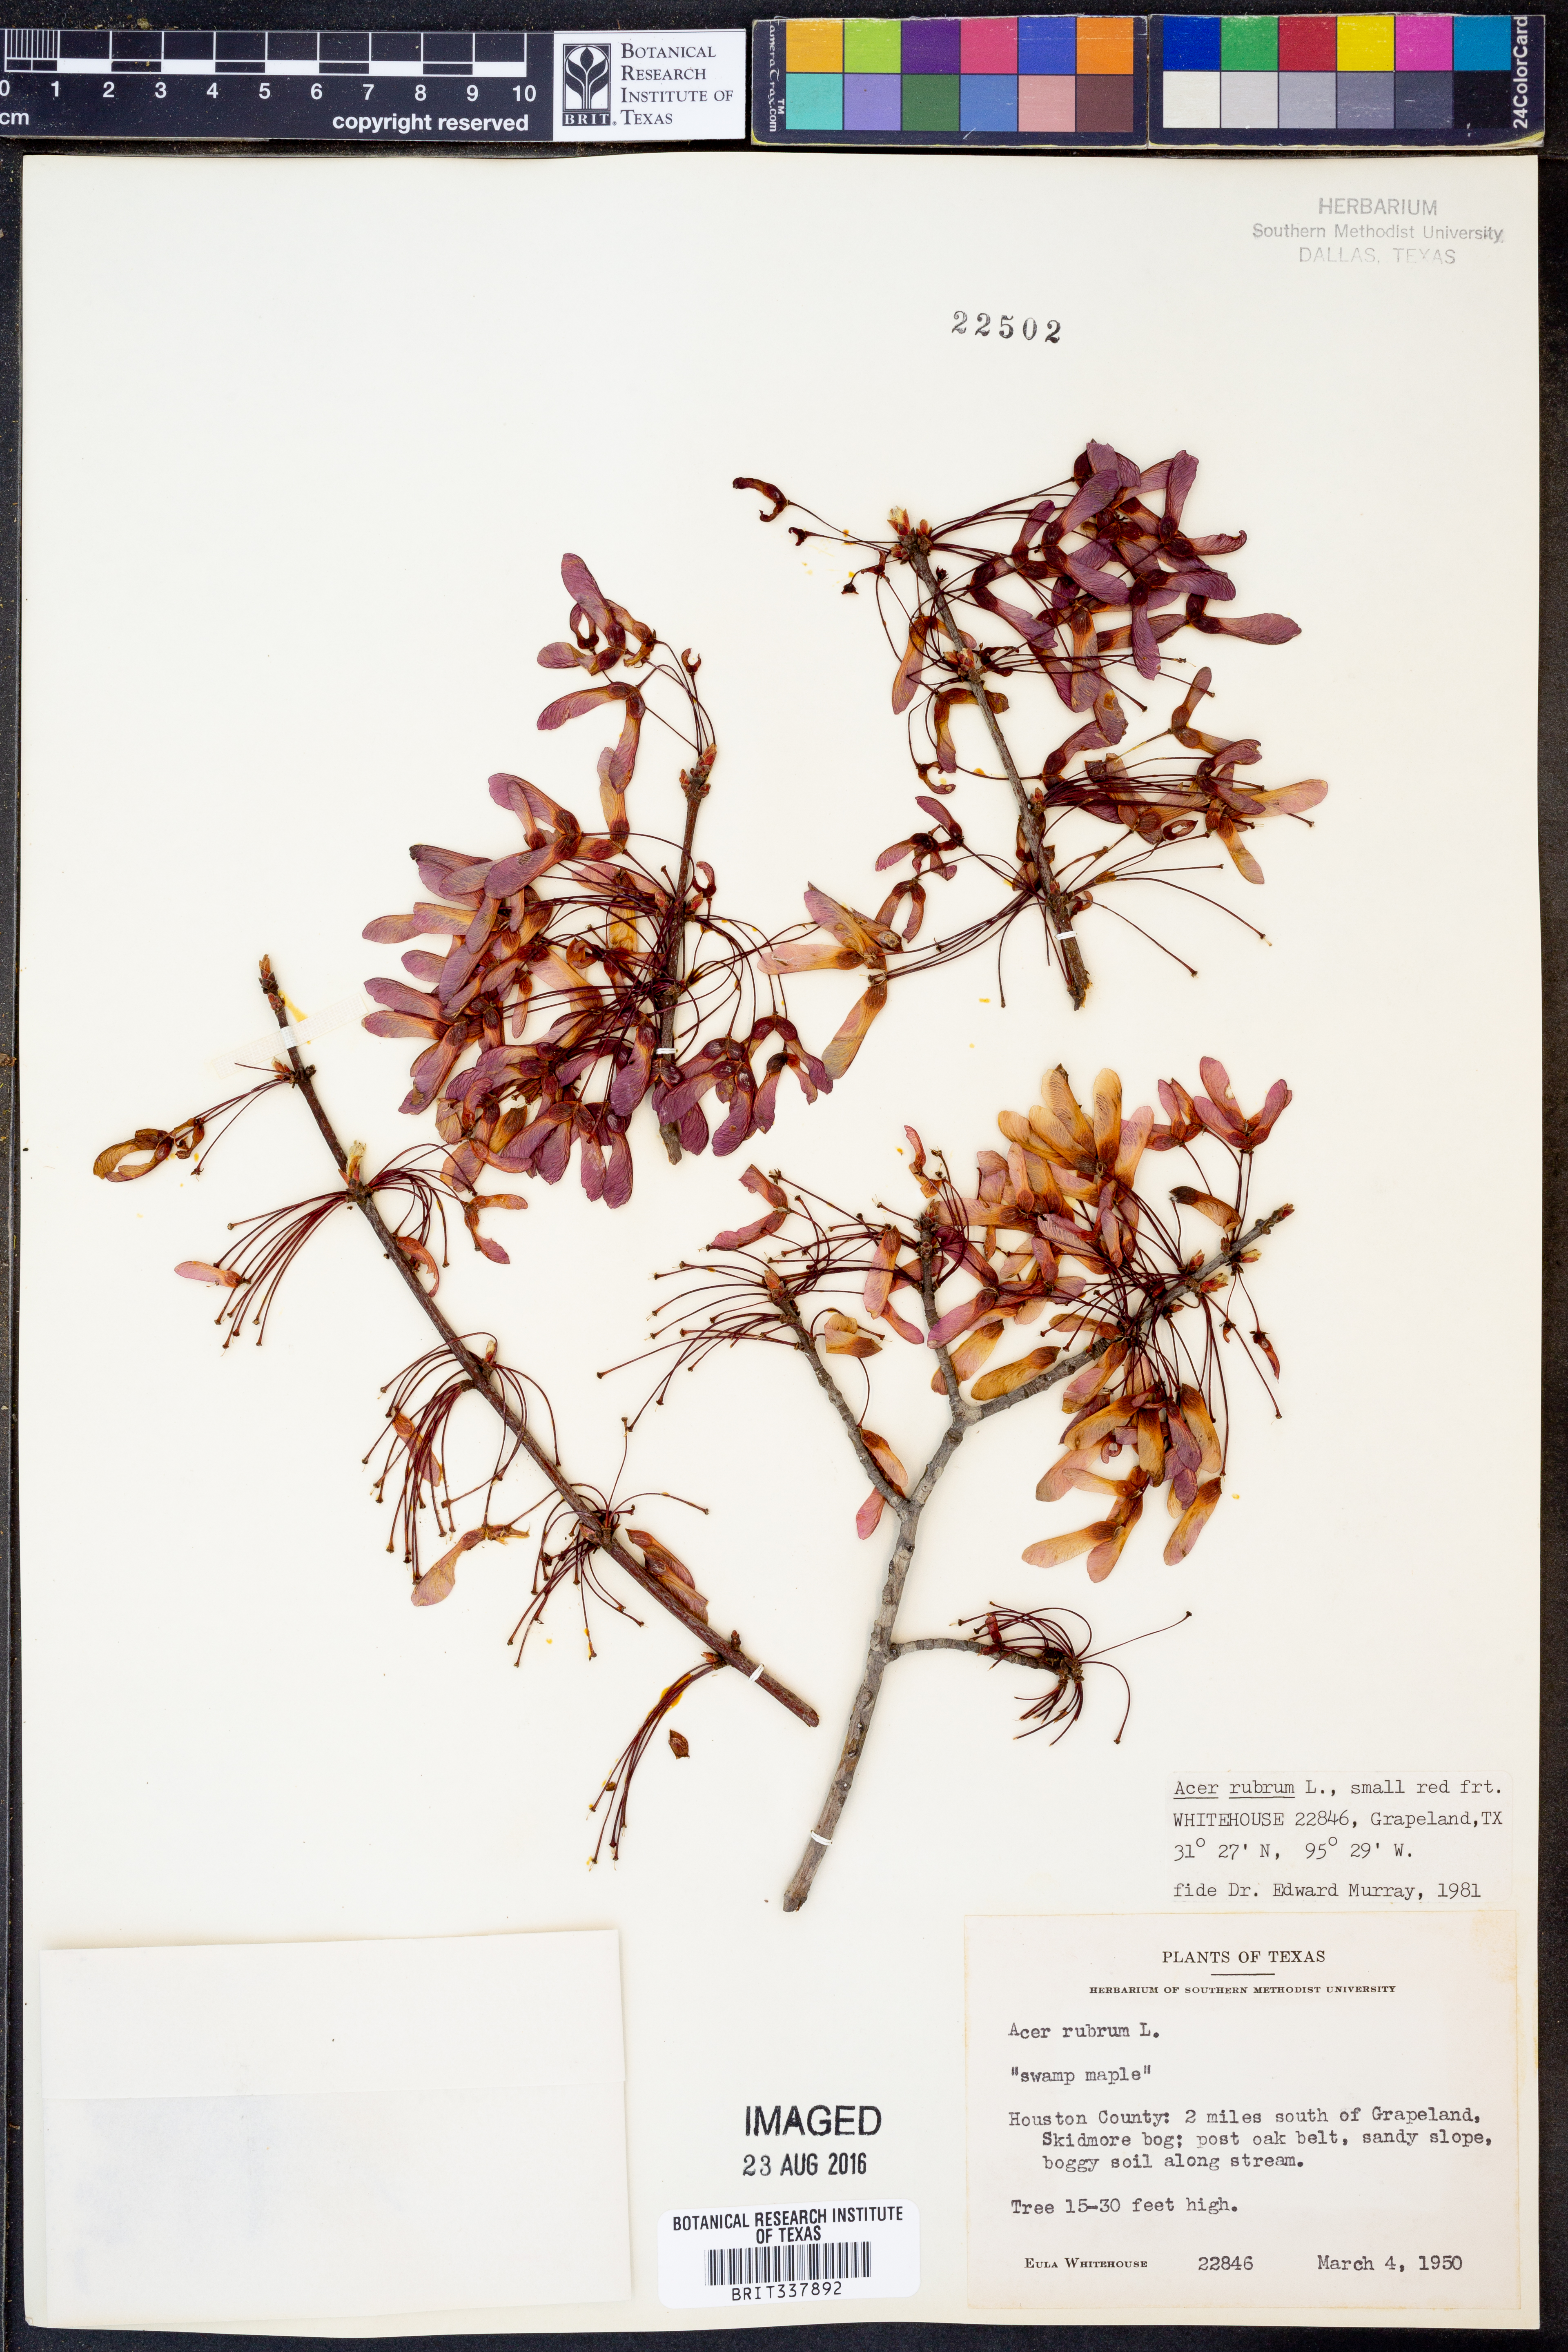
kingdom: Plantae
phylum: Tracheophyta
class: Magnoliopsida
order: Sapindales
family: Sapindaceae
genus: Acer
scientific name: Acer rubrum
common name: Red maple
